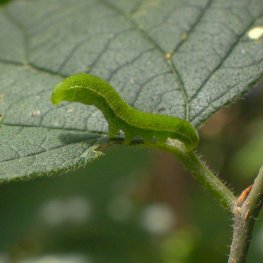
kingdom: Animalia
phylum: Arthropoda
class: Insecta
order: Lepidoptera
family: Nymphalidae
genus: Libytheana
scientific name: Libytheana carinenta
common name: American Snout
